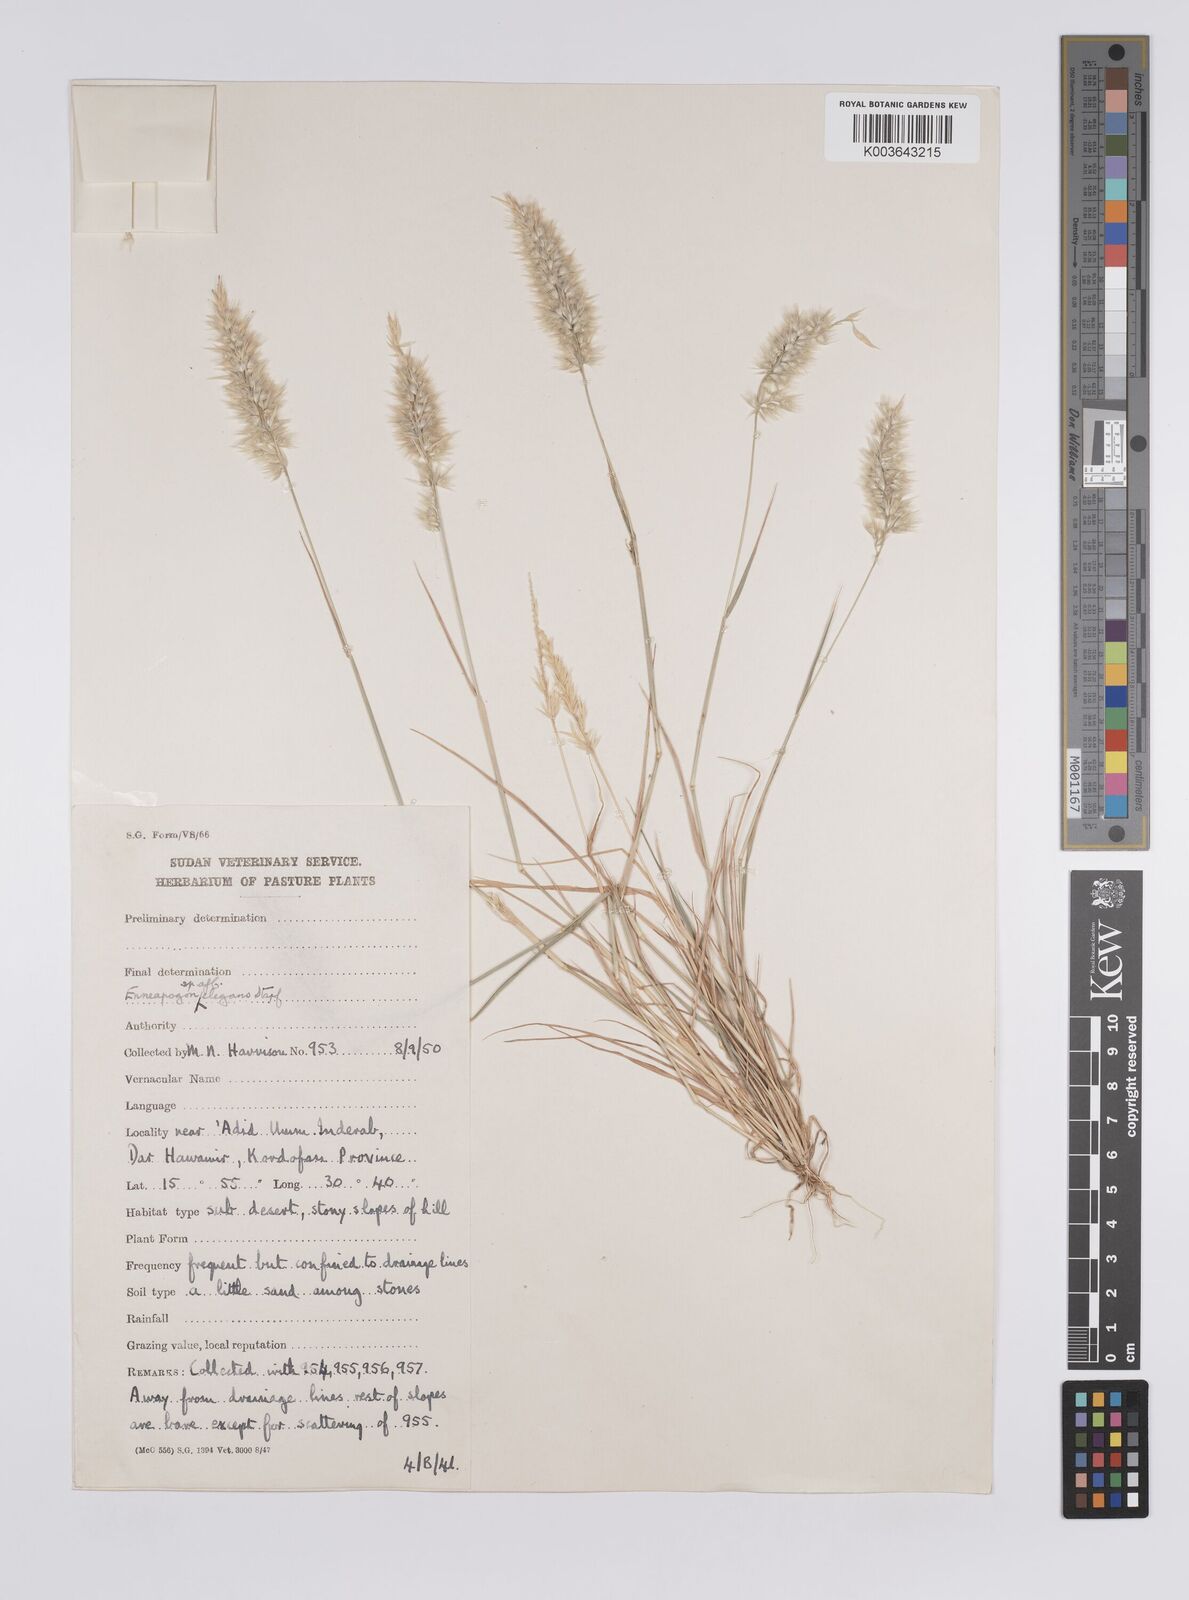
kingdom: Plantae
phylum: Tracheophyta
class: Liliopsida
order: Poales
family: Poaceae
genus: Enneapogon
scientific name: Enneapogon lophotrichus
